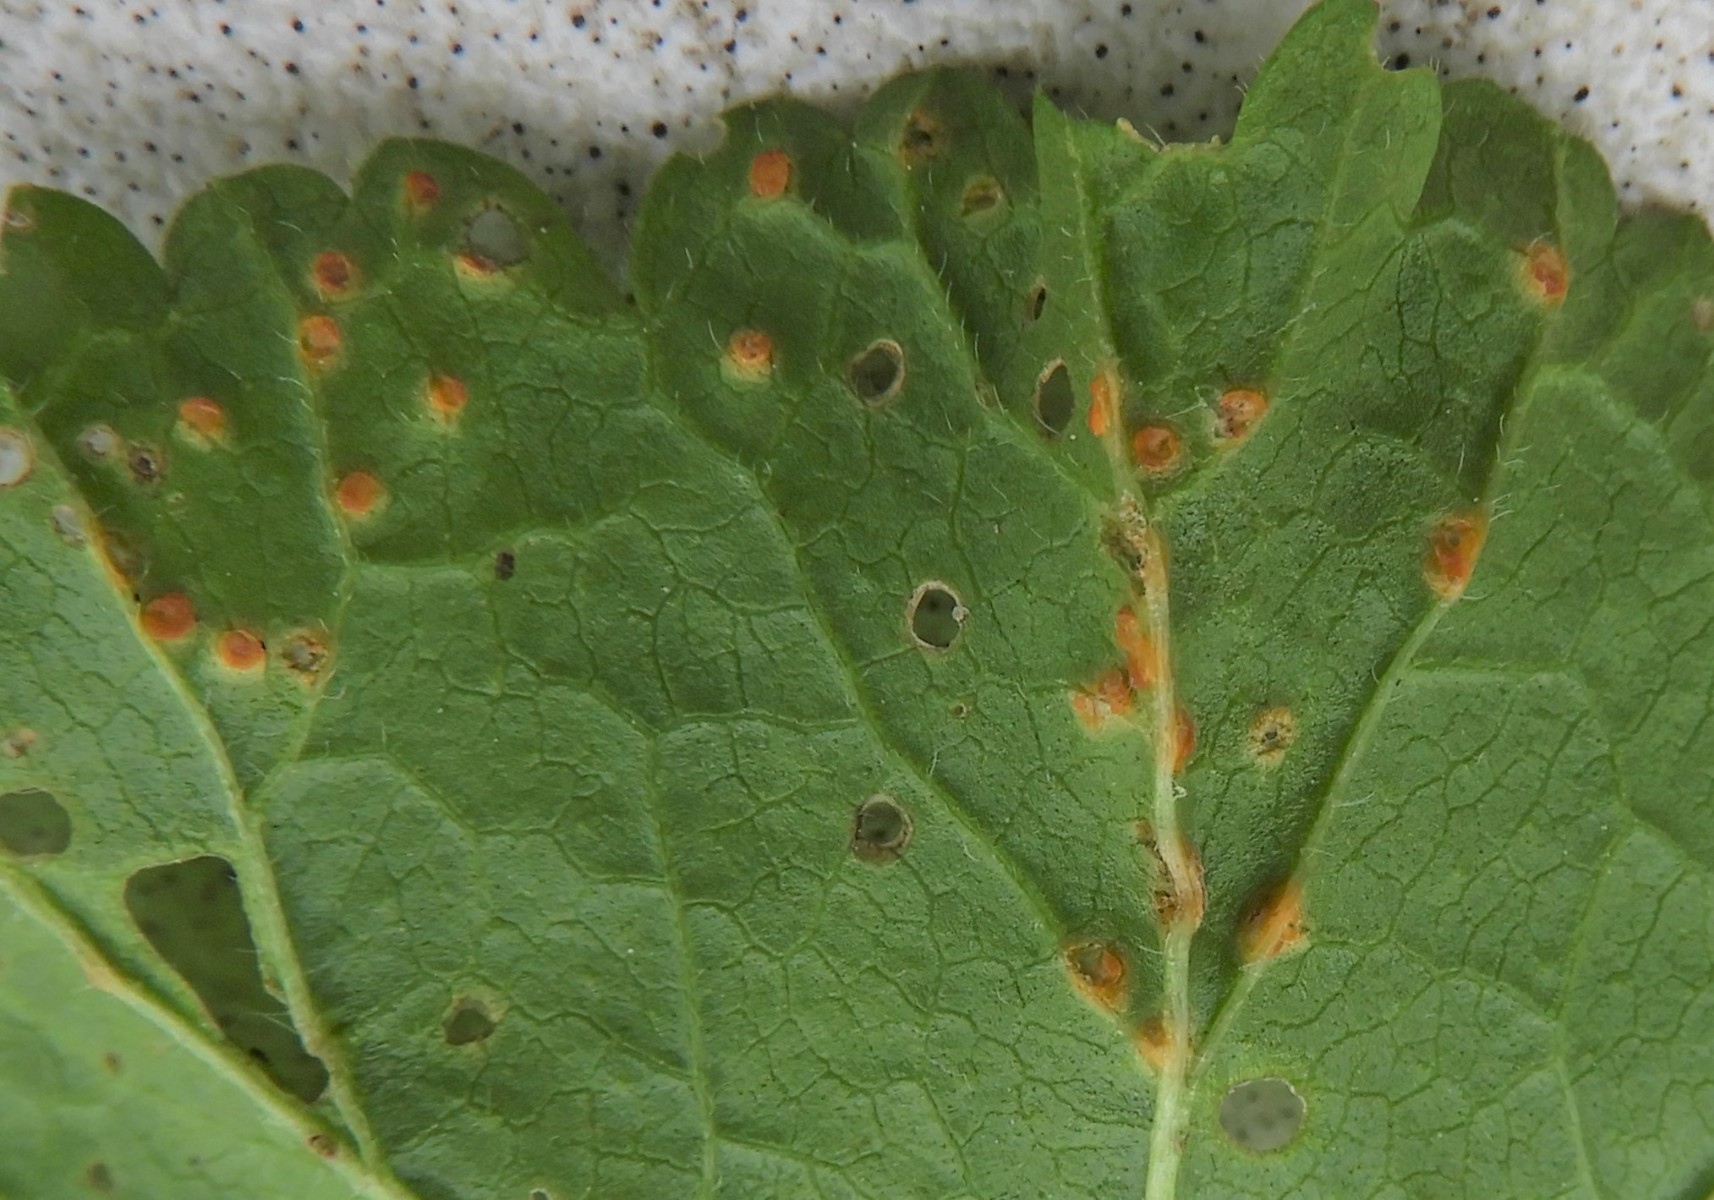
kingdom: Fungi
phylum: Basidiomycota
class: Pucciniomycetes
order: Pucciniales
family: Pucciniaceae
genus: Puccinia
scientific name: Puccinia malvacearum
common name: stokrose-tvecellerust
